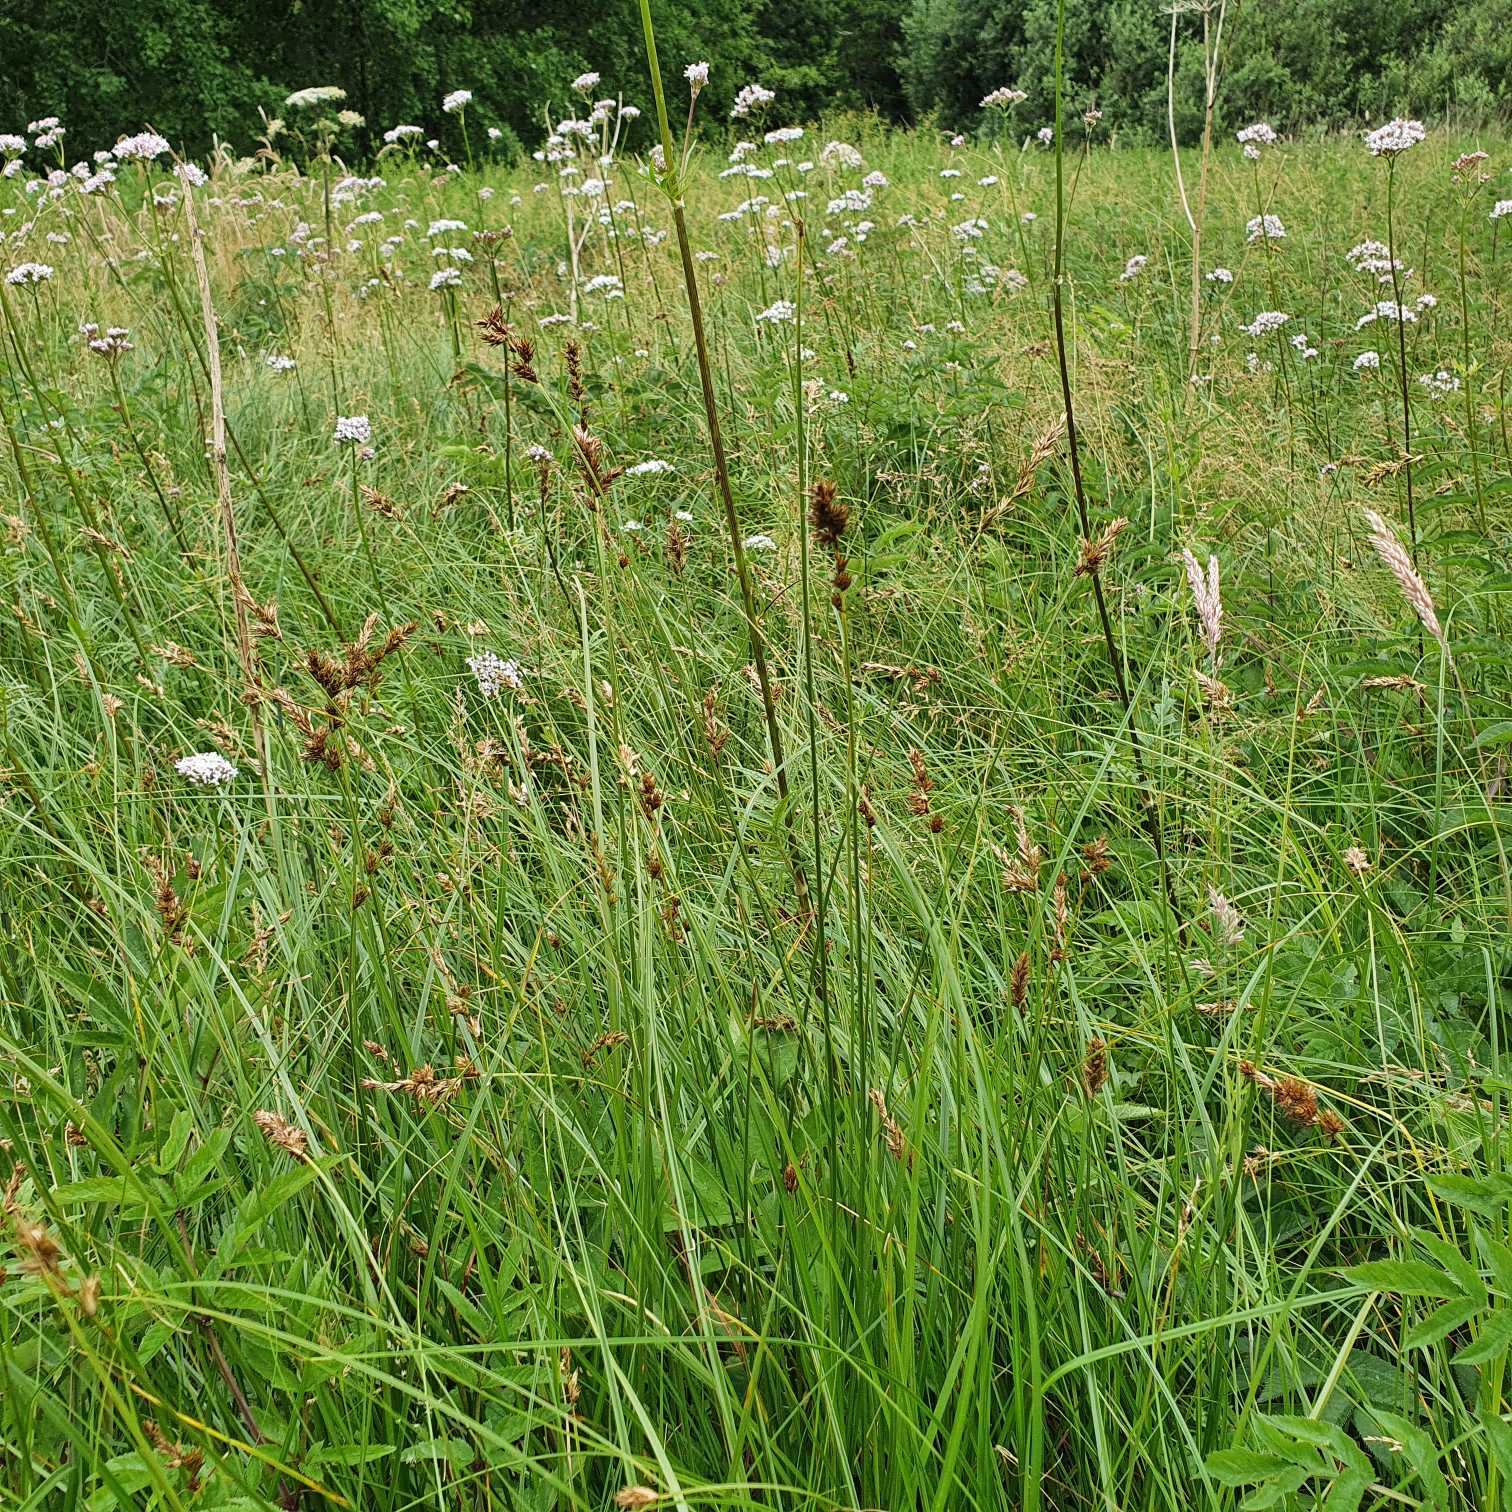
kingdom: Plantae
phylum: Tracheophyta
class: Liliopsida
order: Poales
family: Cyperaceae
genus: Carex
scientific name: Carex disticha
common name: Toradet star
